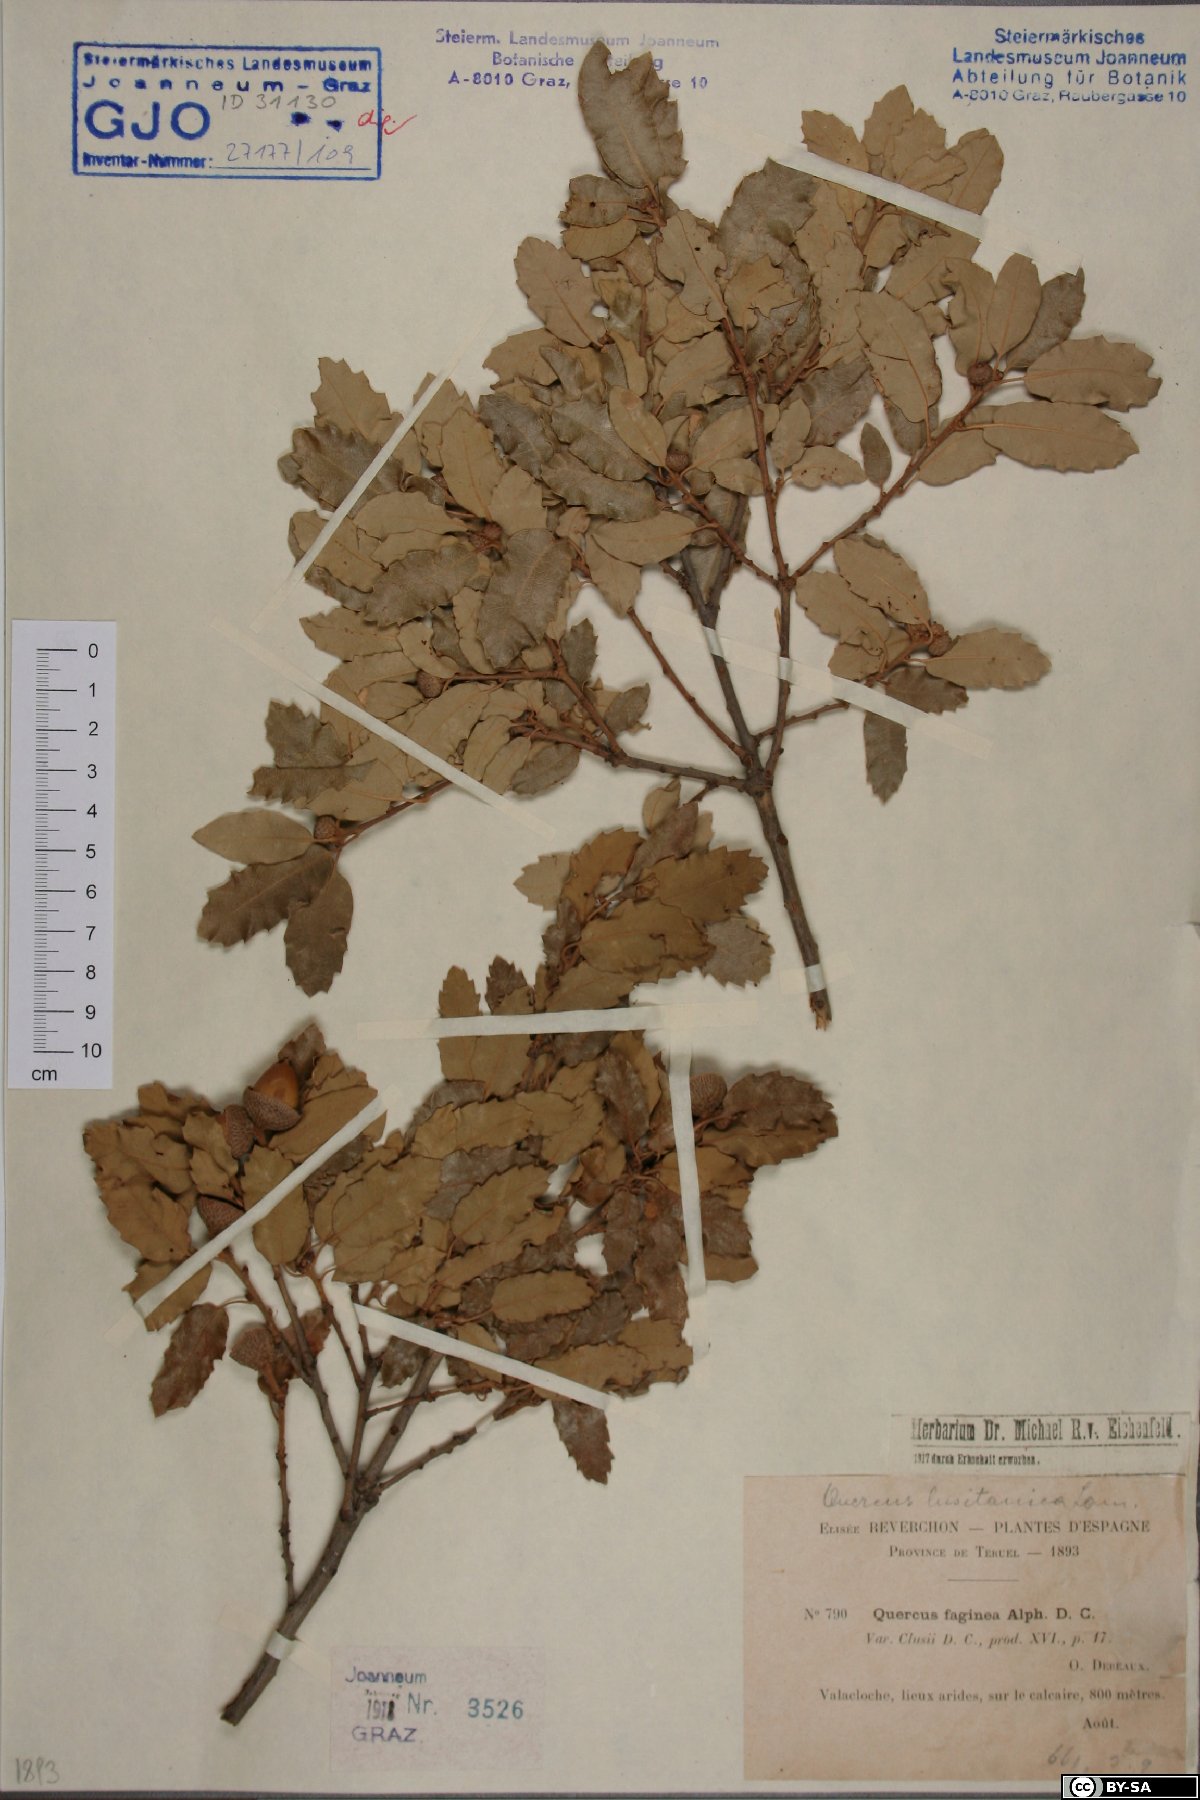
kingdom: Plantae
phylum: Tracheophyta
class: Magnoliopsida
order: Fagales
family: Fagaceae
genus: Quercus
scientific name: Quercus lusitanica
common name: Scrub gall oak
